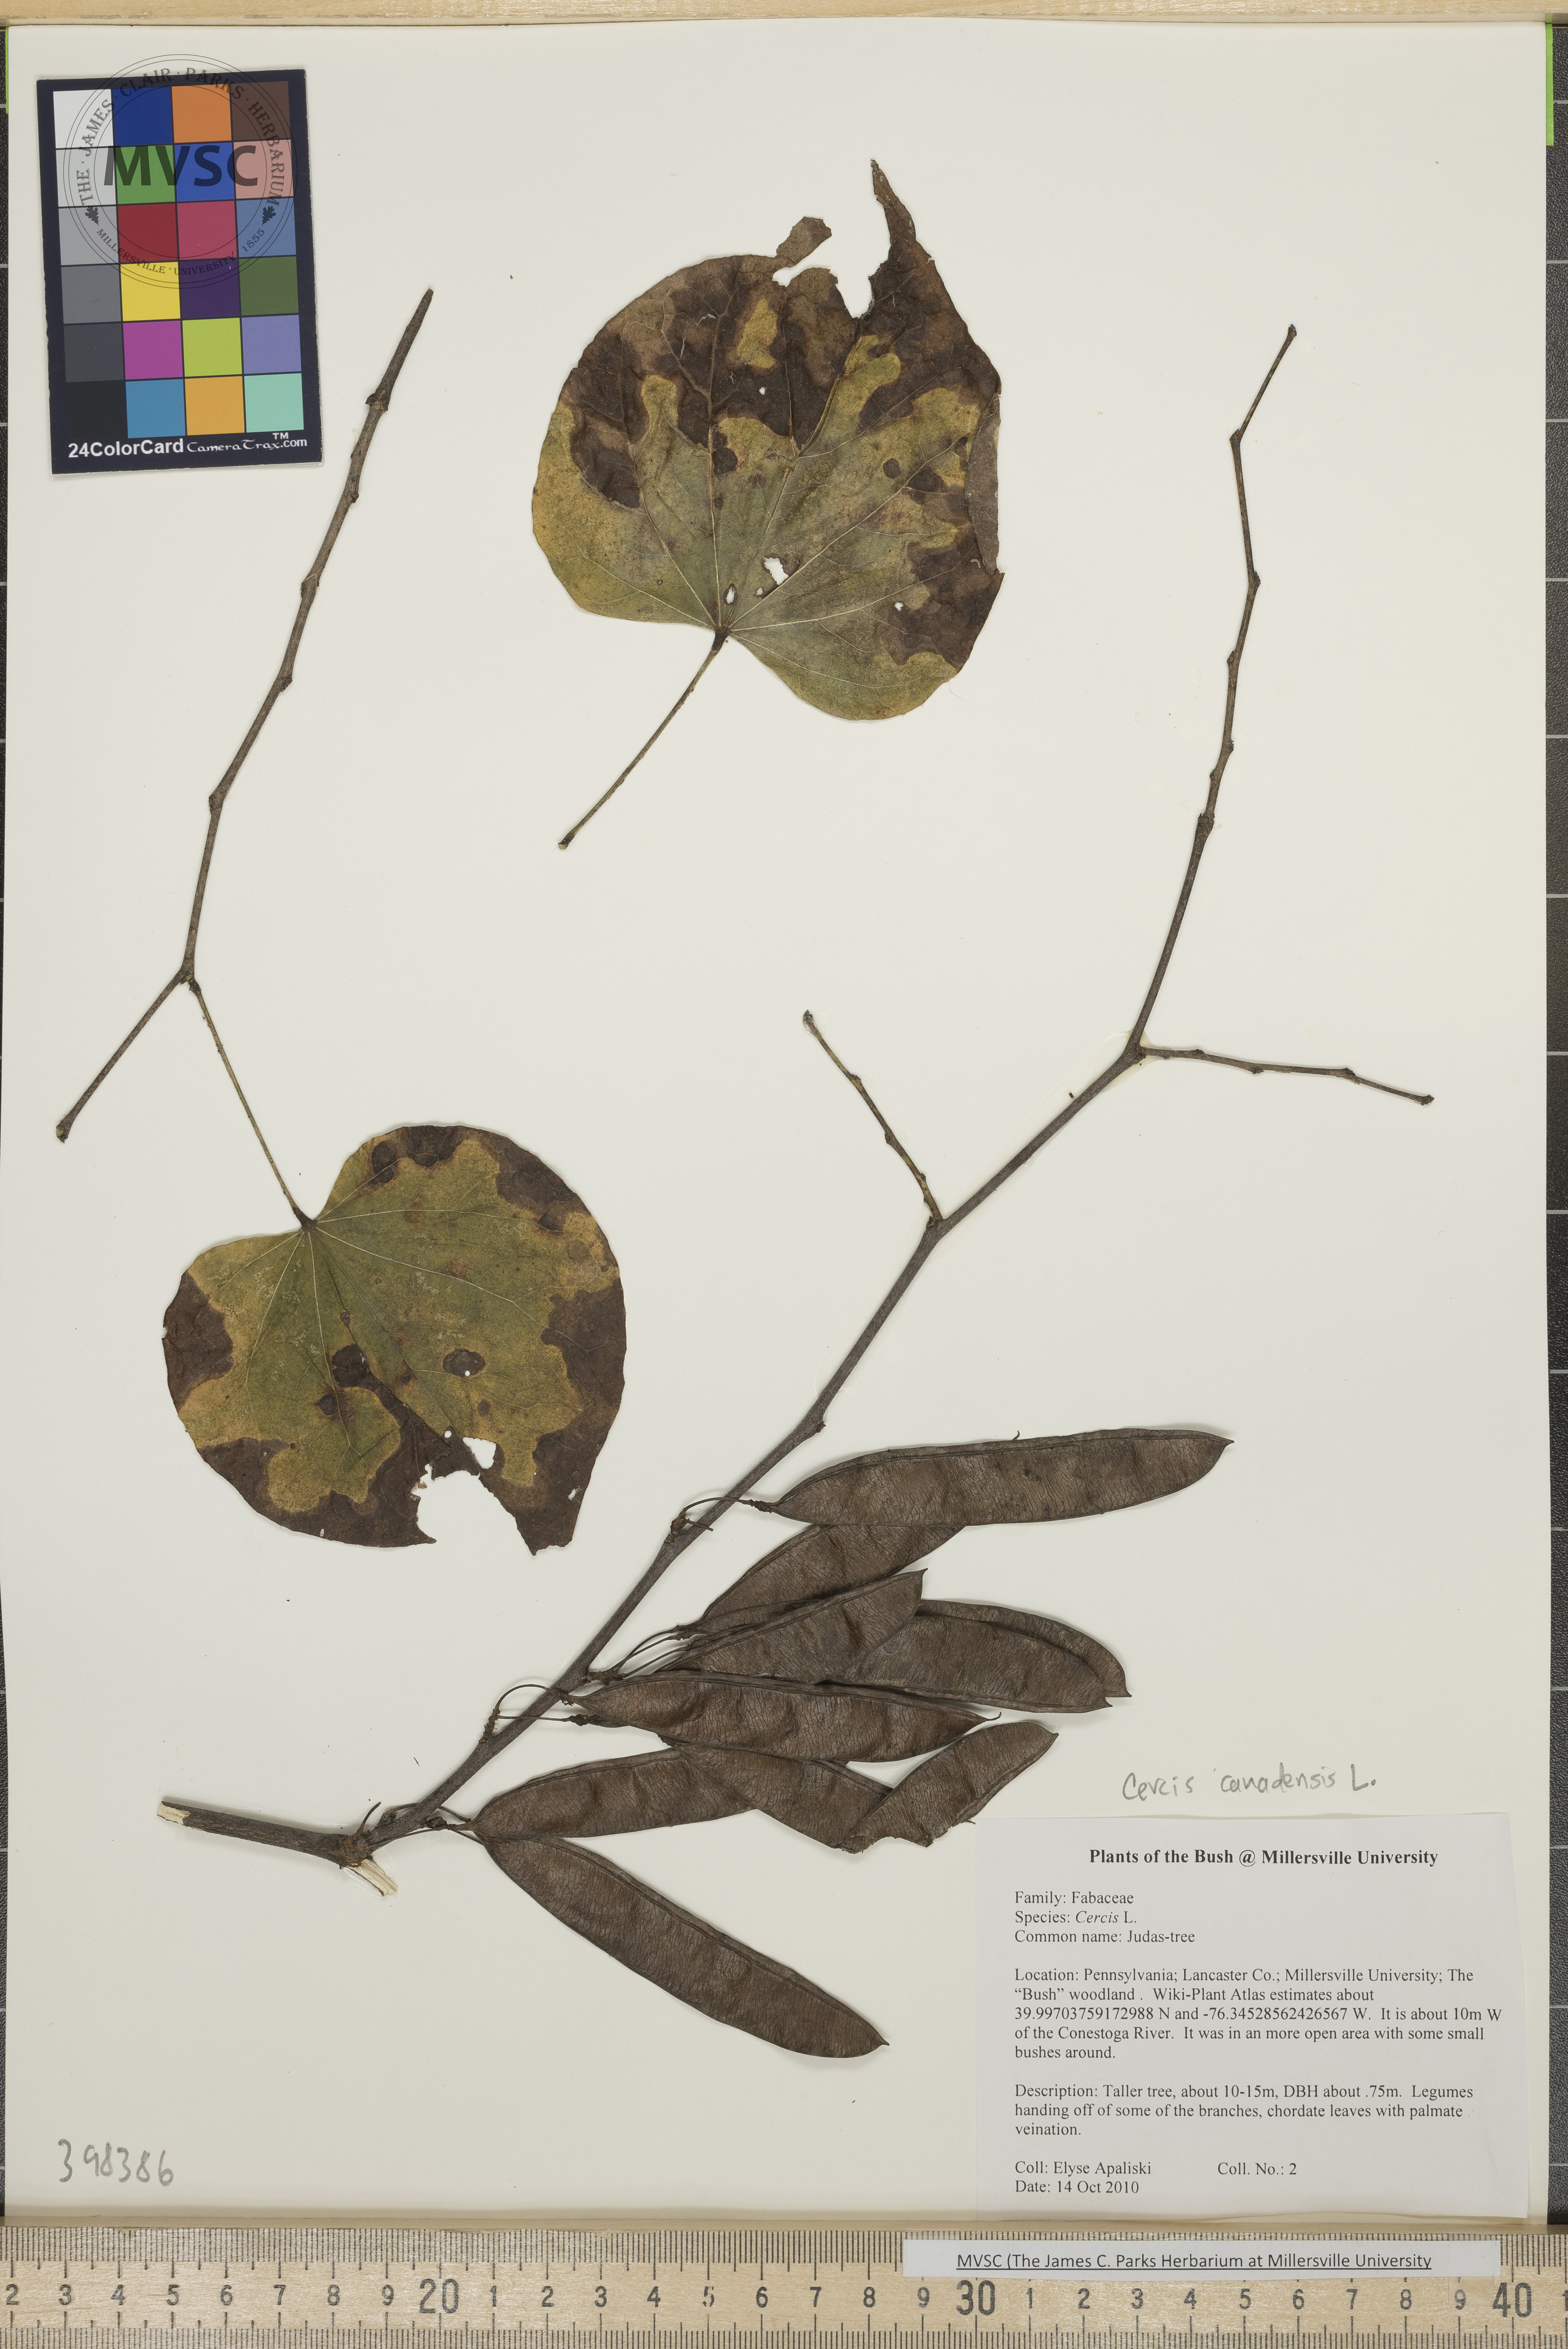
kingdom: Plantae
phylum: Tracheophyta
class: Magnoliopsida
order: Fabales
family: Fabaceae
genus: Cercis
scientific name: Cercis canadensis
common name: Redbud
